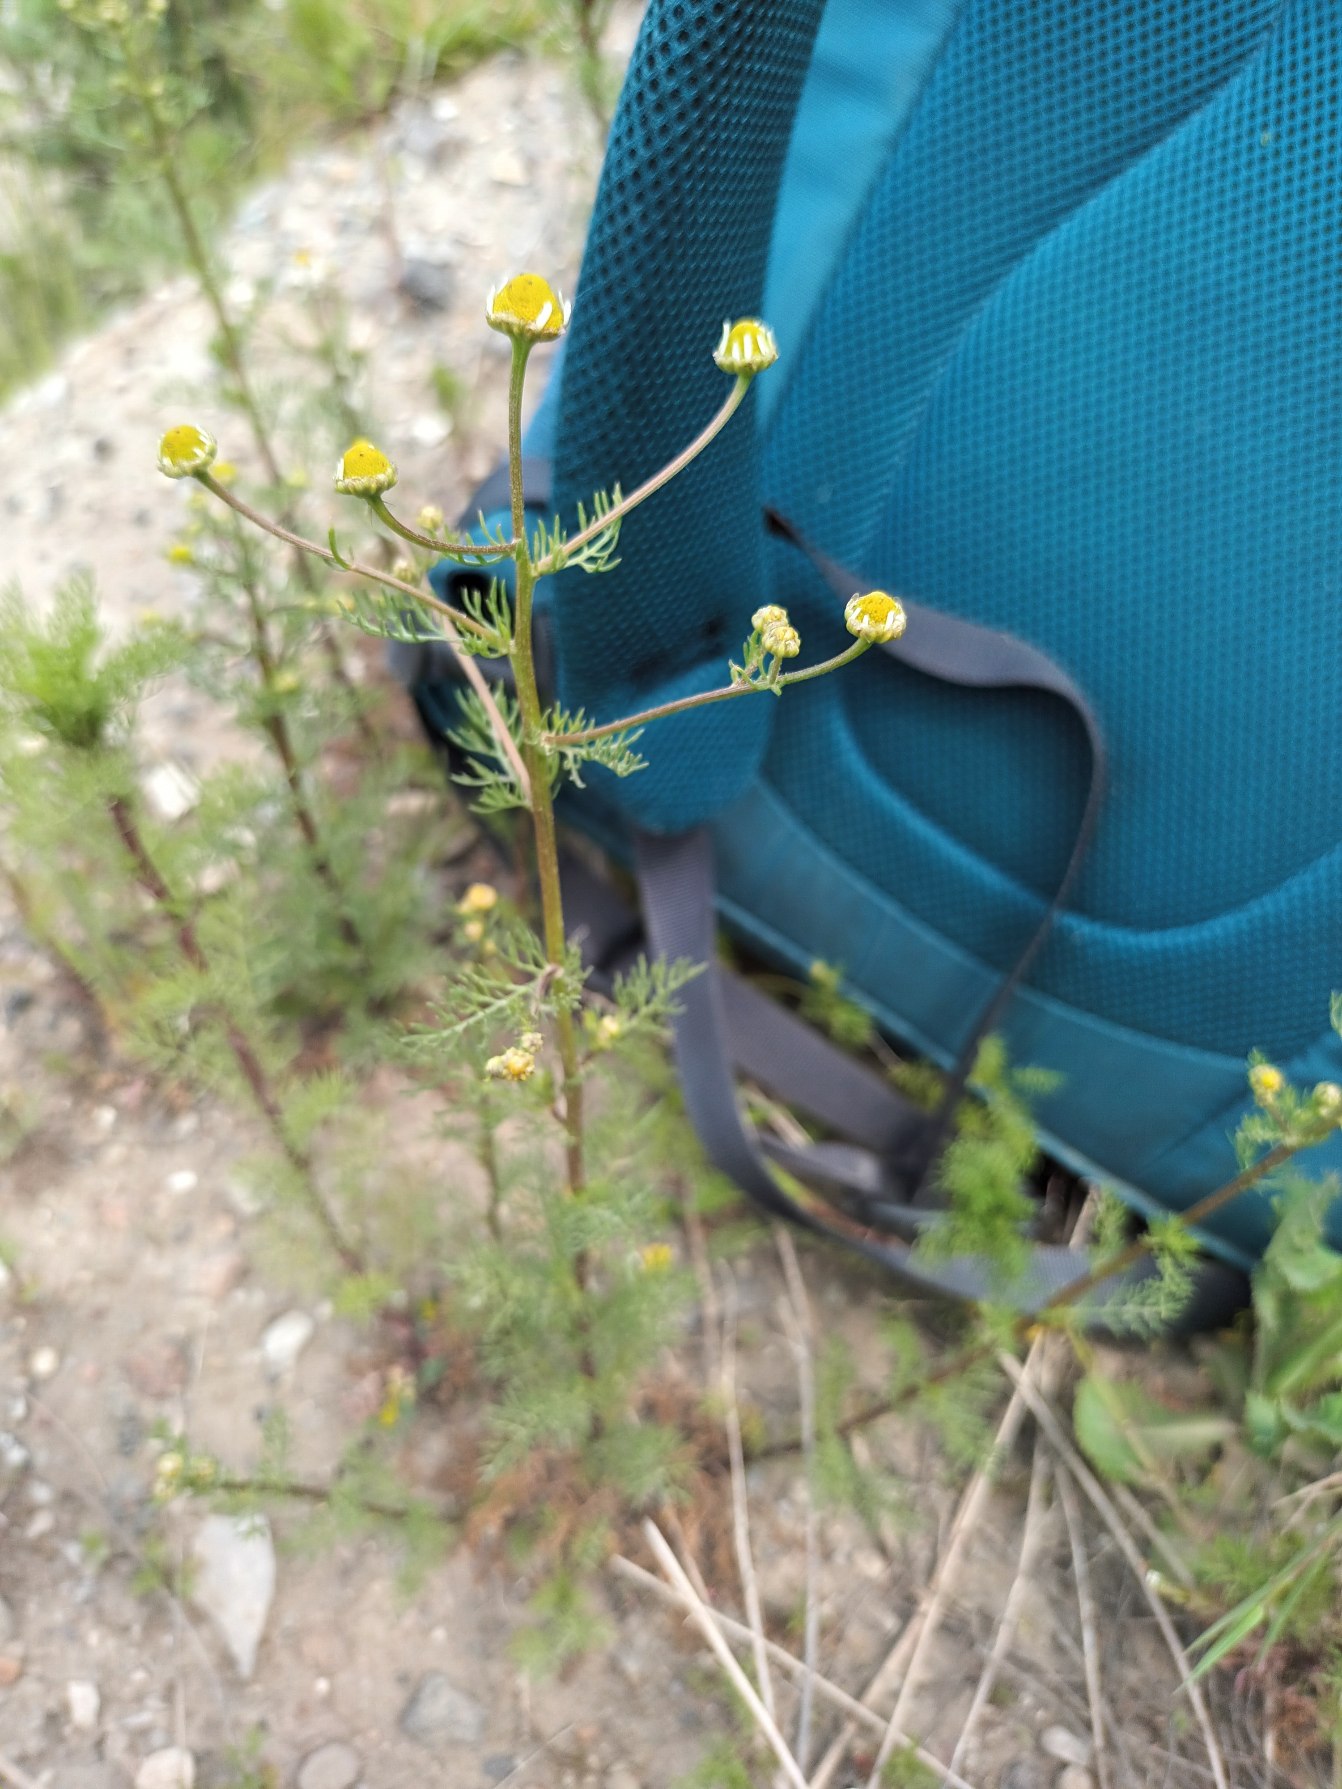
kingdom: Plantae
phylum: Tracheophyta
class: Magnoliopsida
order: Asterales
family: Asteraceae
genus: Matricaria
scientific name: Matricaria chamomilla
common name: Vellugtende kamille
